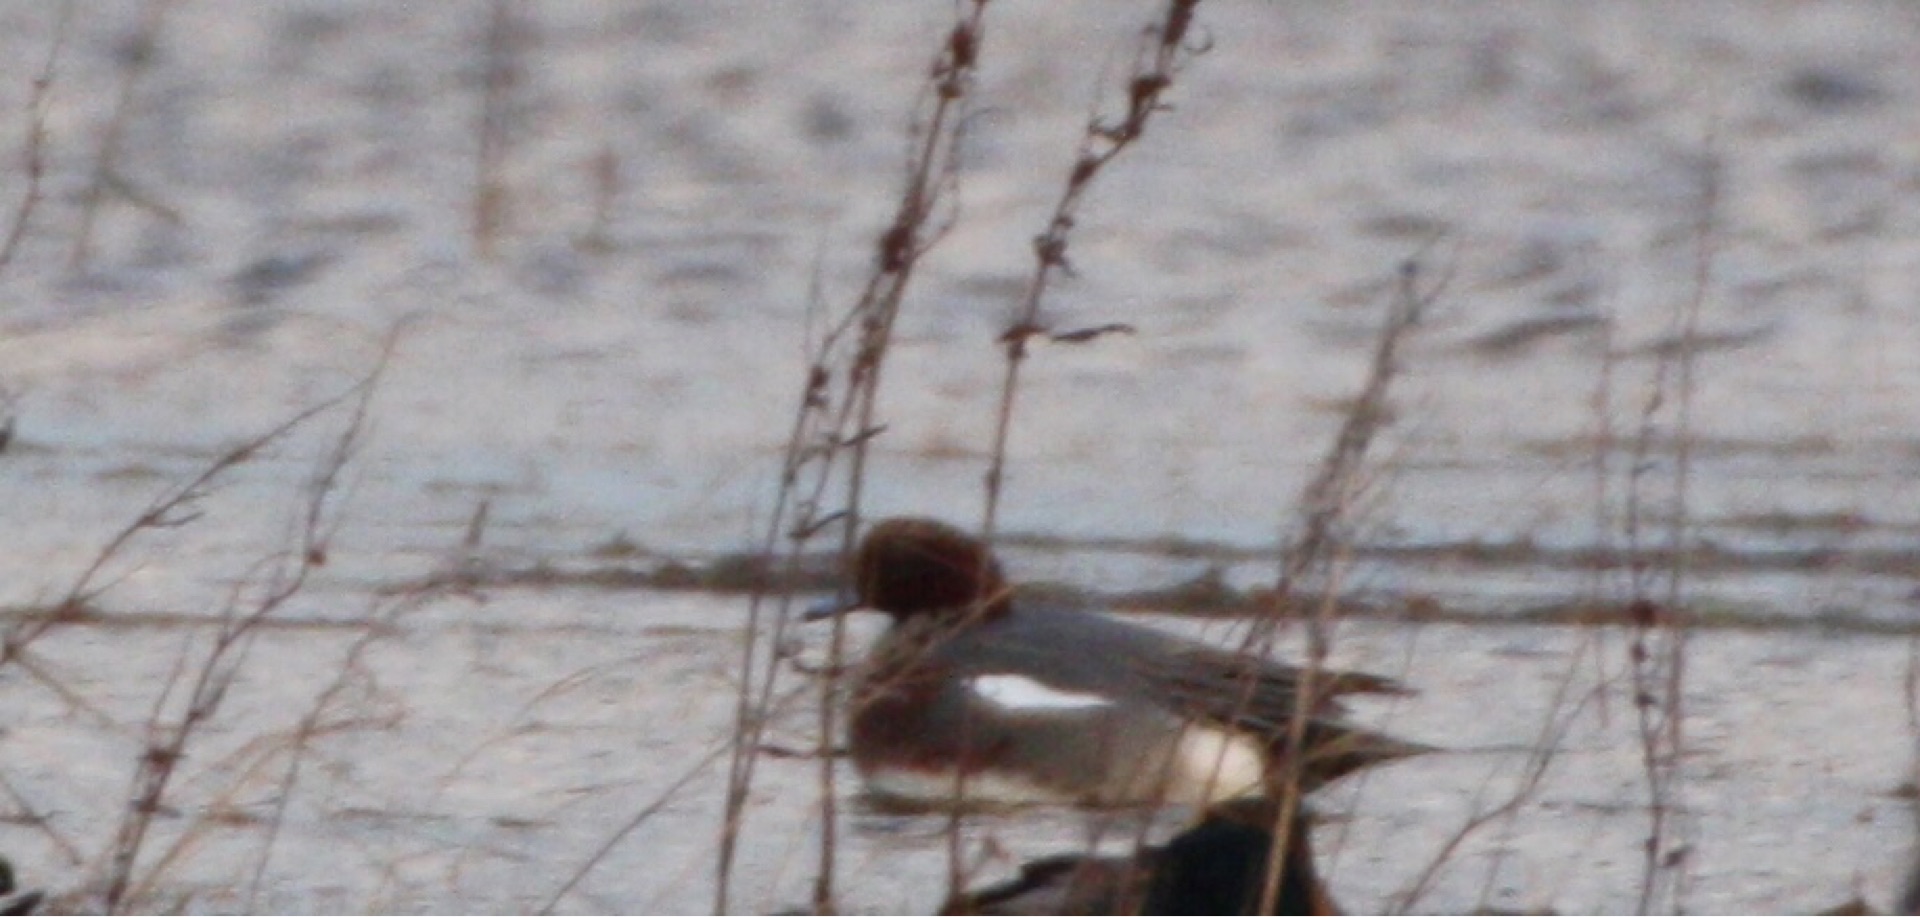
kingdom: Animalia
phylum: Chordata
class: Aves
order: Anseriformes
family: Anatidae
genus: Mareca
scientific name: Mareca penelope
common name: Pibeand
